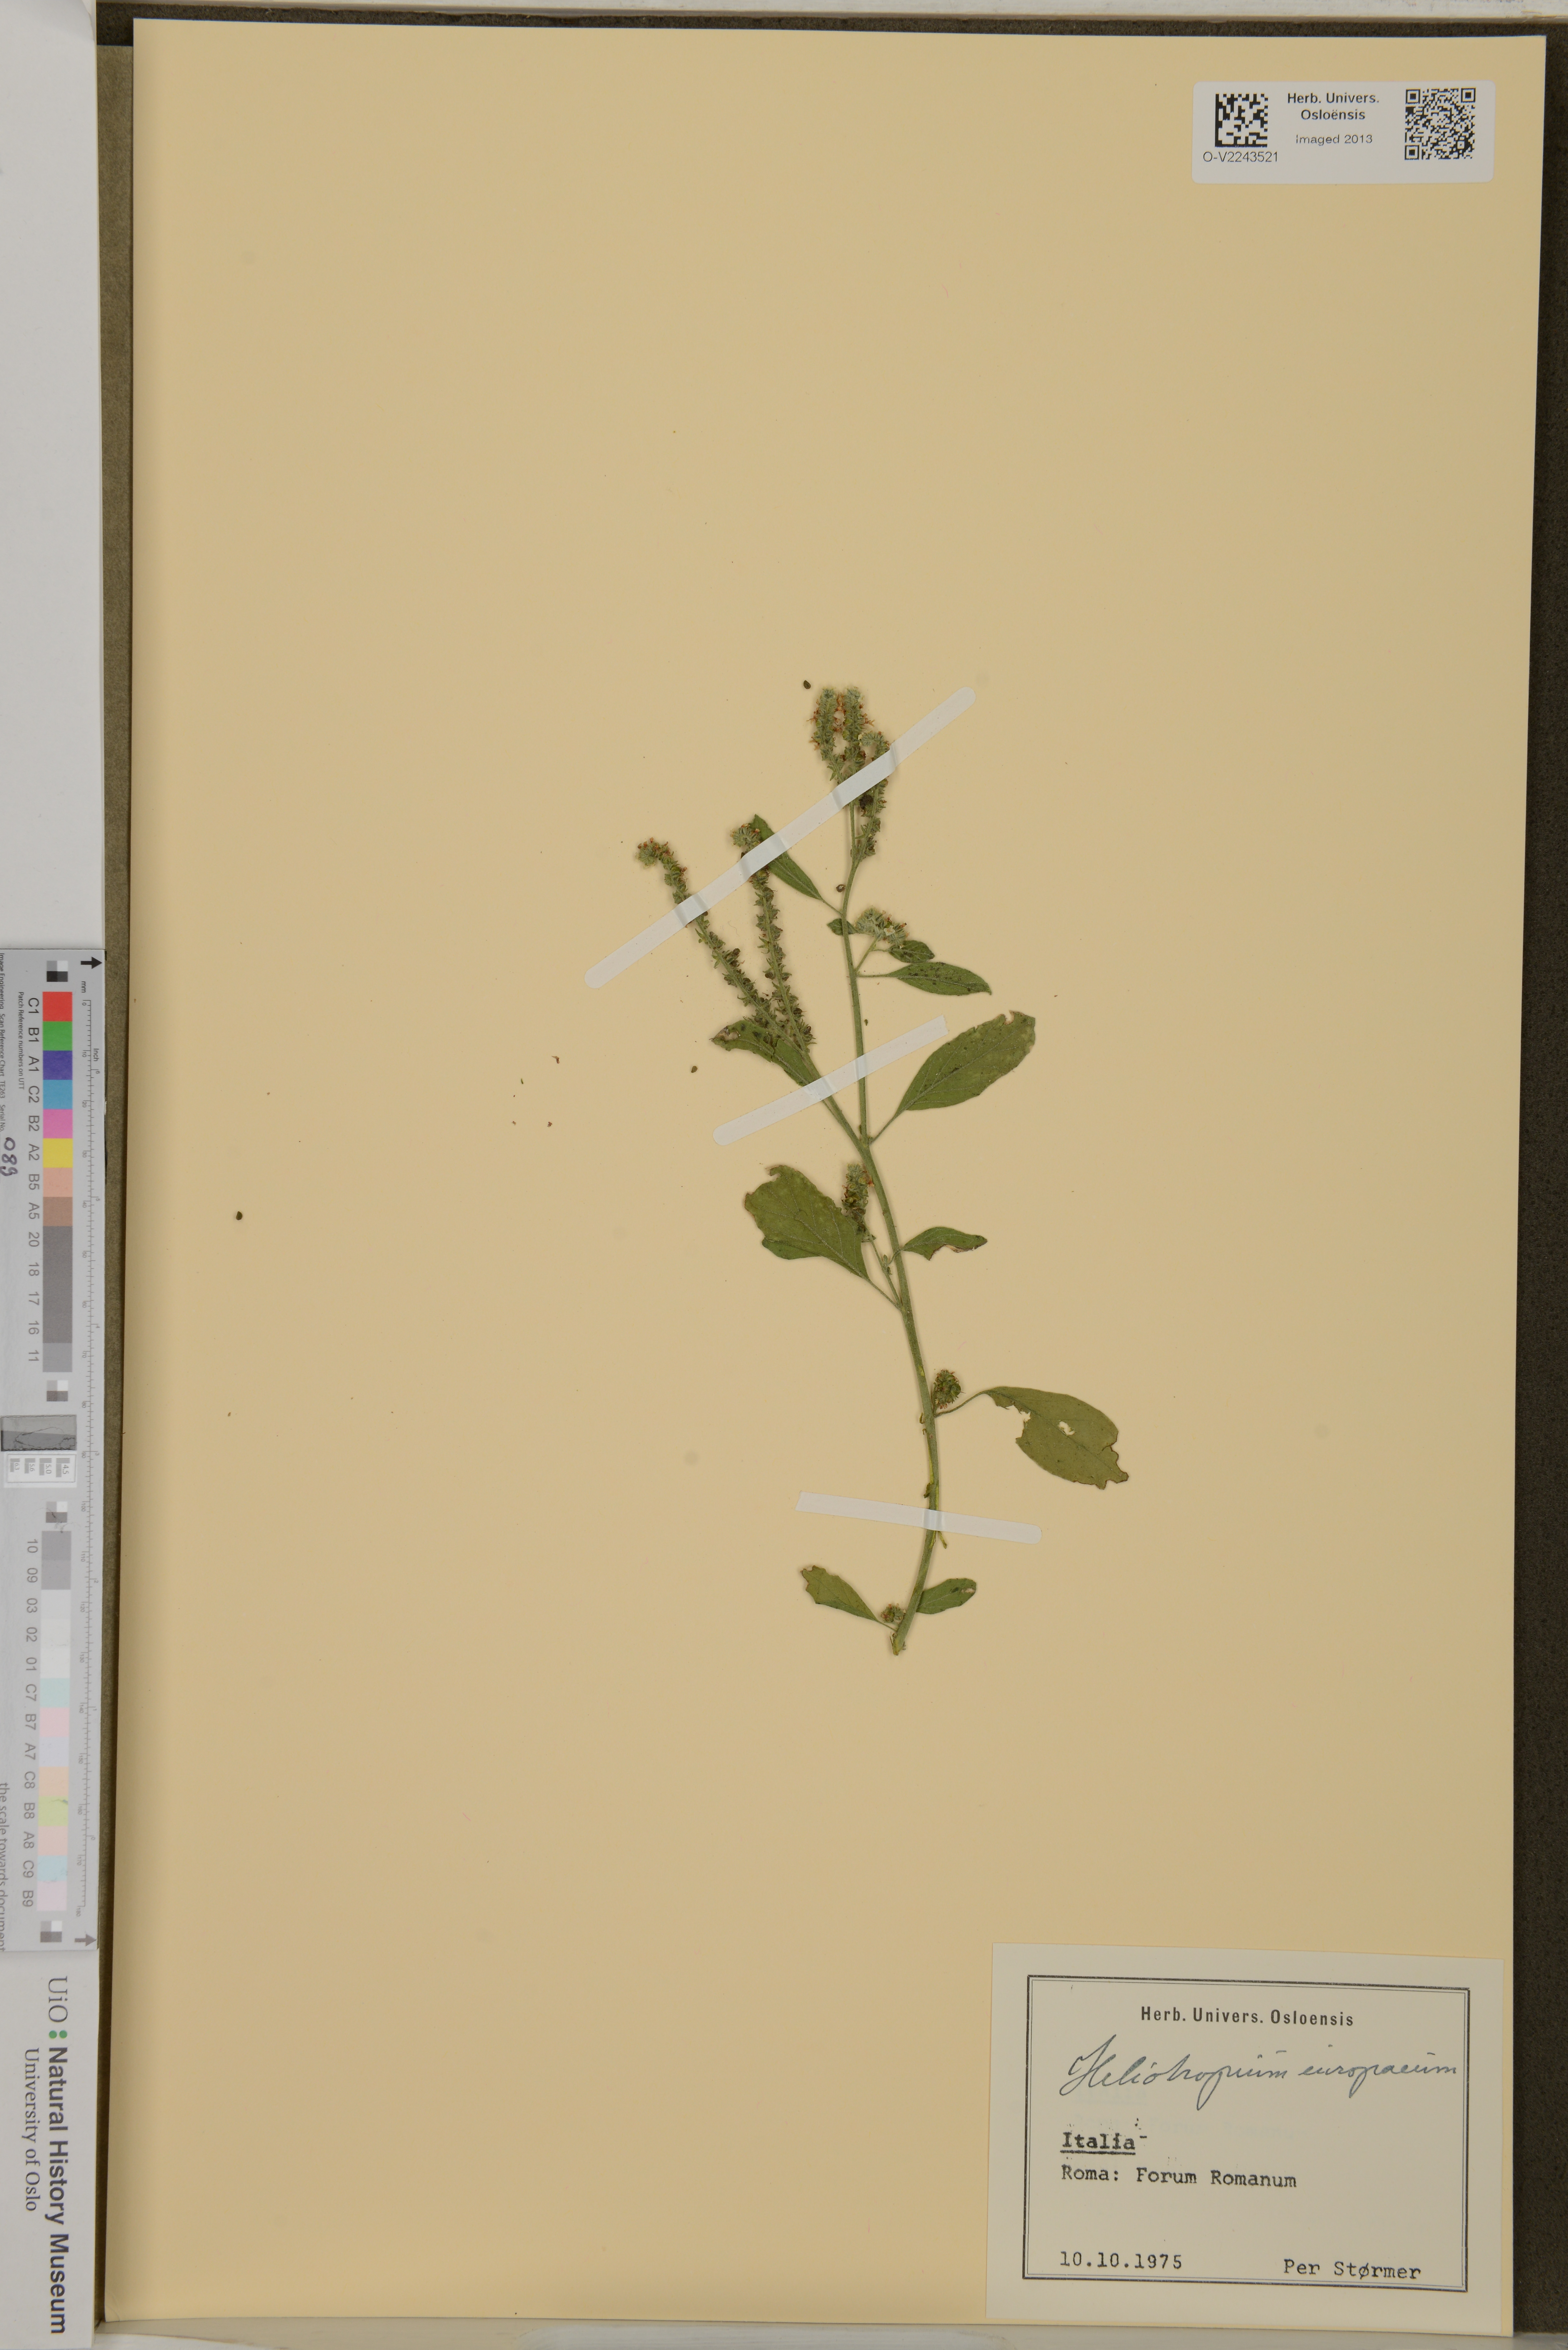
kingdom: Plantae
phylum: Tracheophyta
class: Magnoliopsida
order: Boraginales
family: Heliotropiaceae
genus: Heliotropium
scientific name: Heliotropium europaeum
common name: European heliotrope
